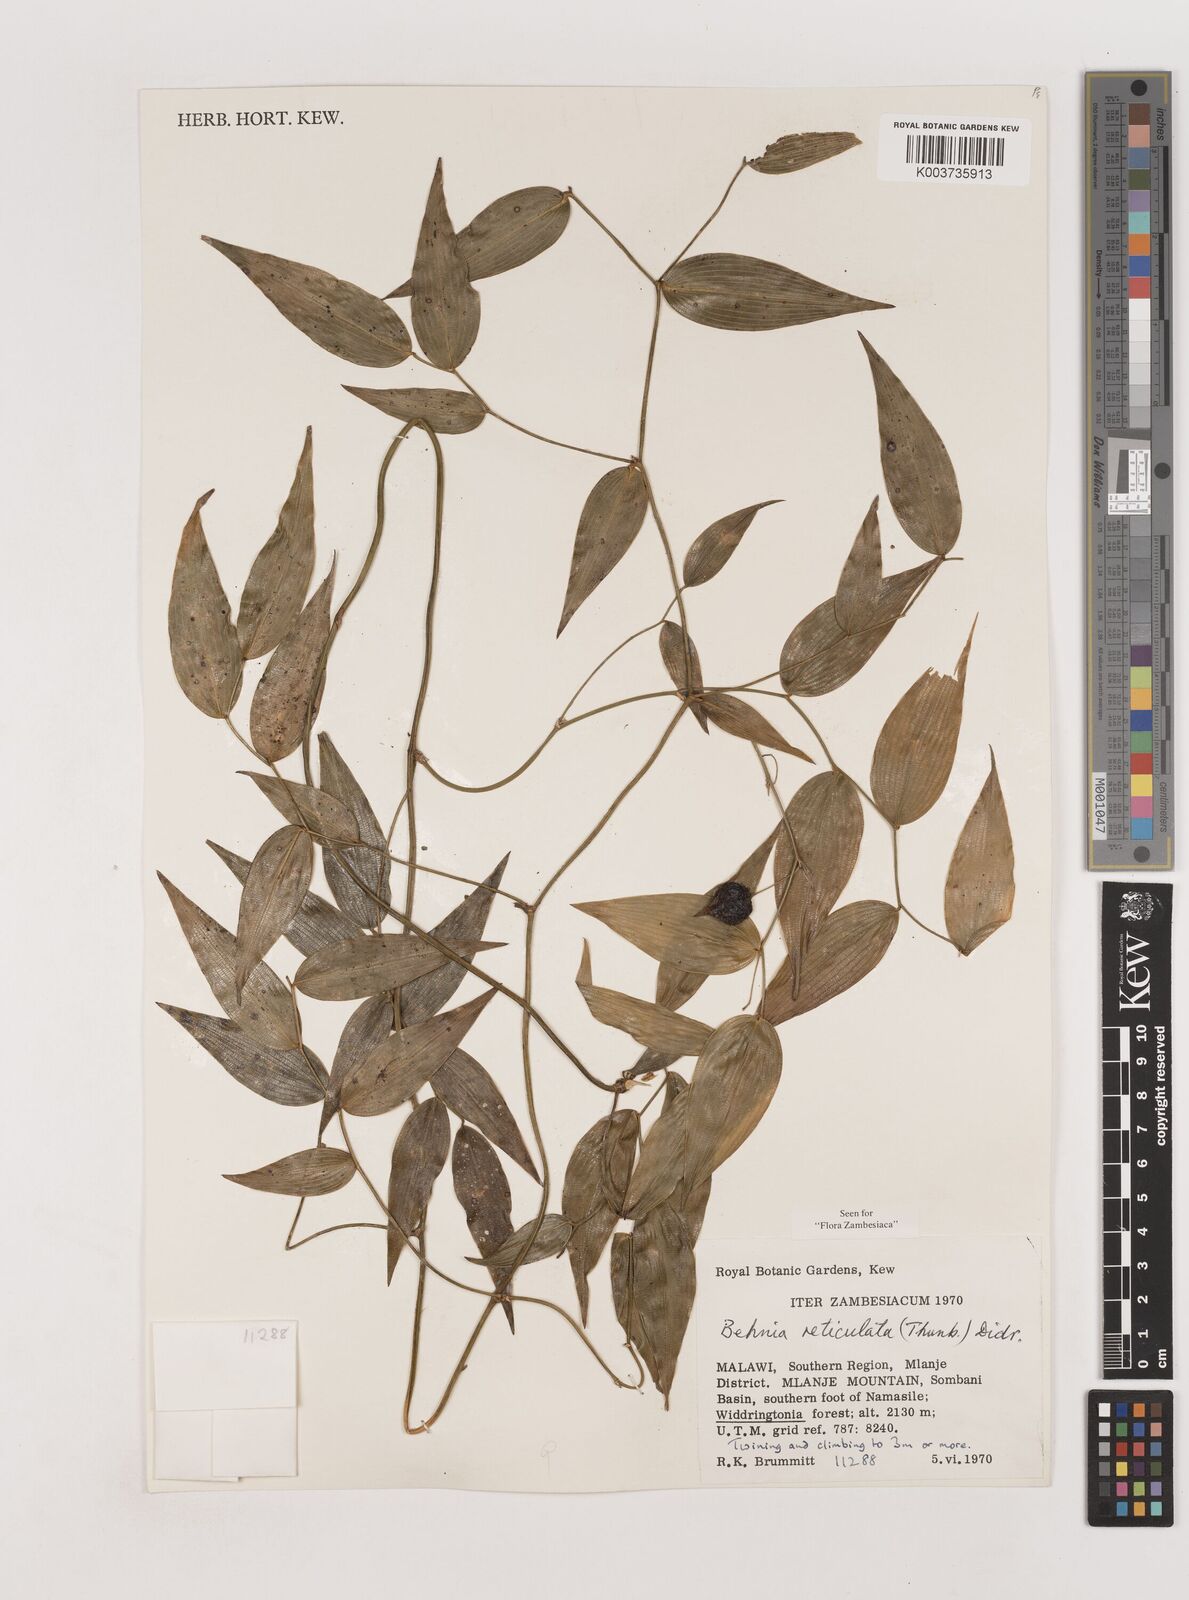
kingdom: Plantae
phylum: Tracheophyta
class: Liliopsida
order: Asparagales
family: Asparagaceae
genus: Behnia
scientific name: Behnia reticulata
